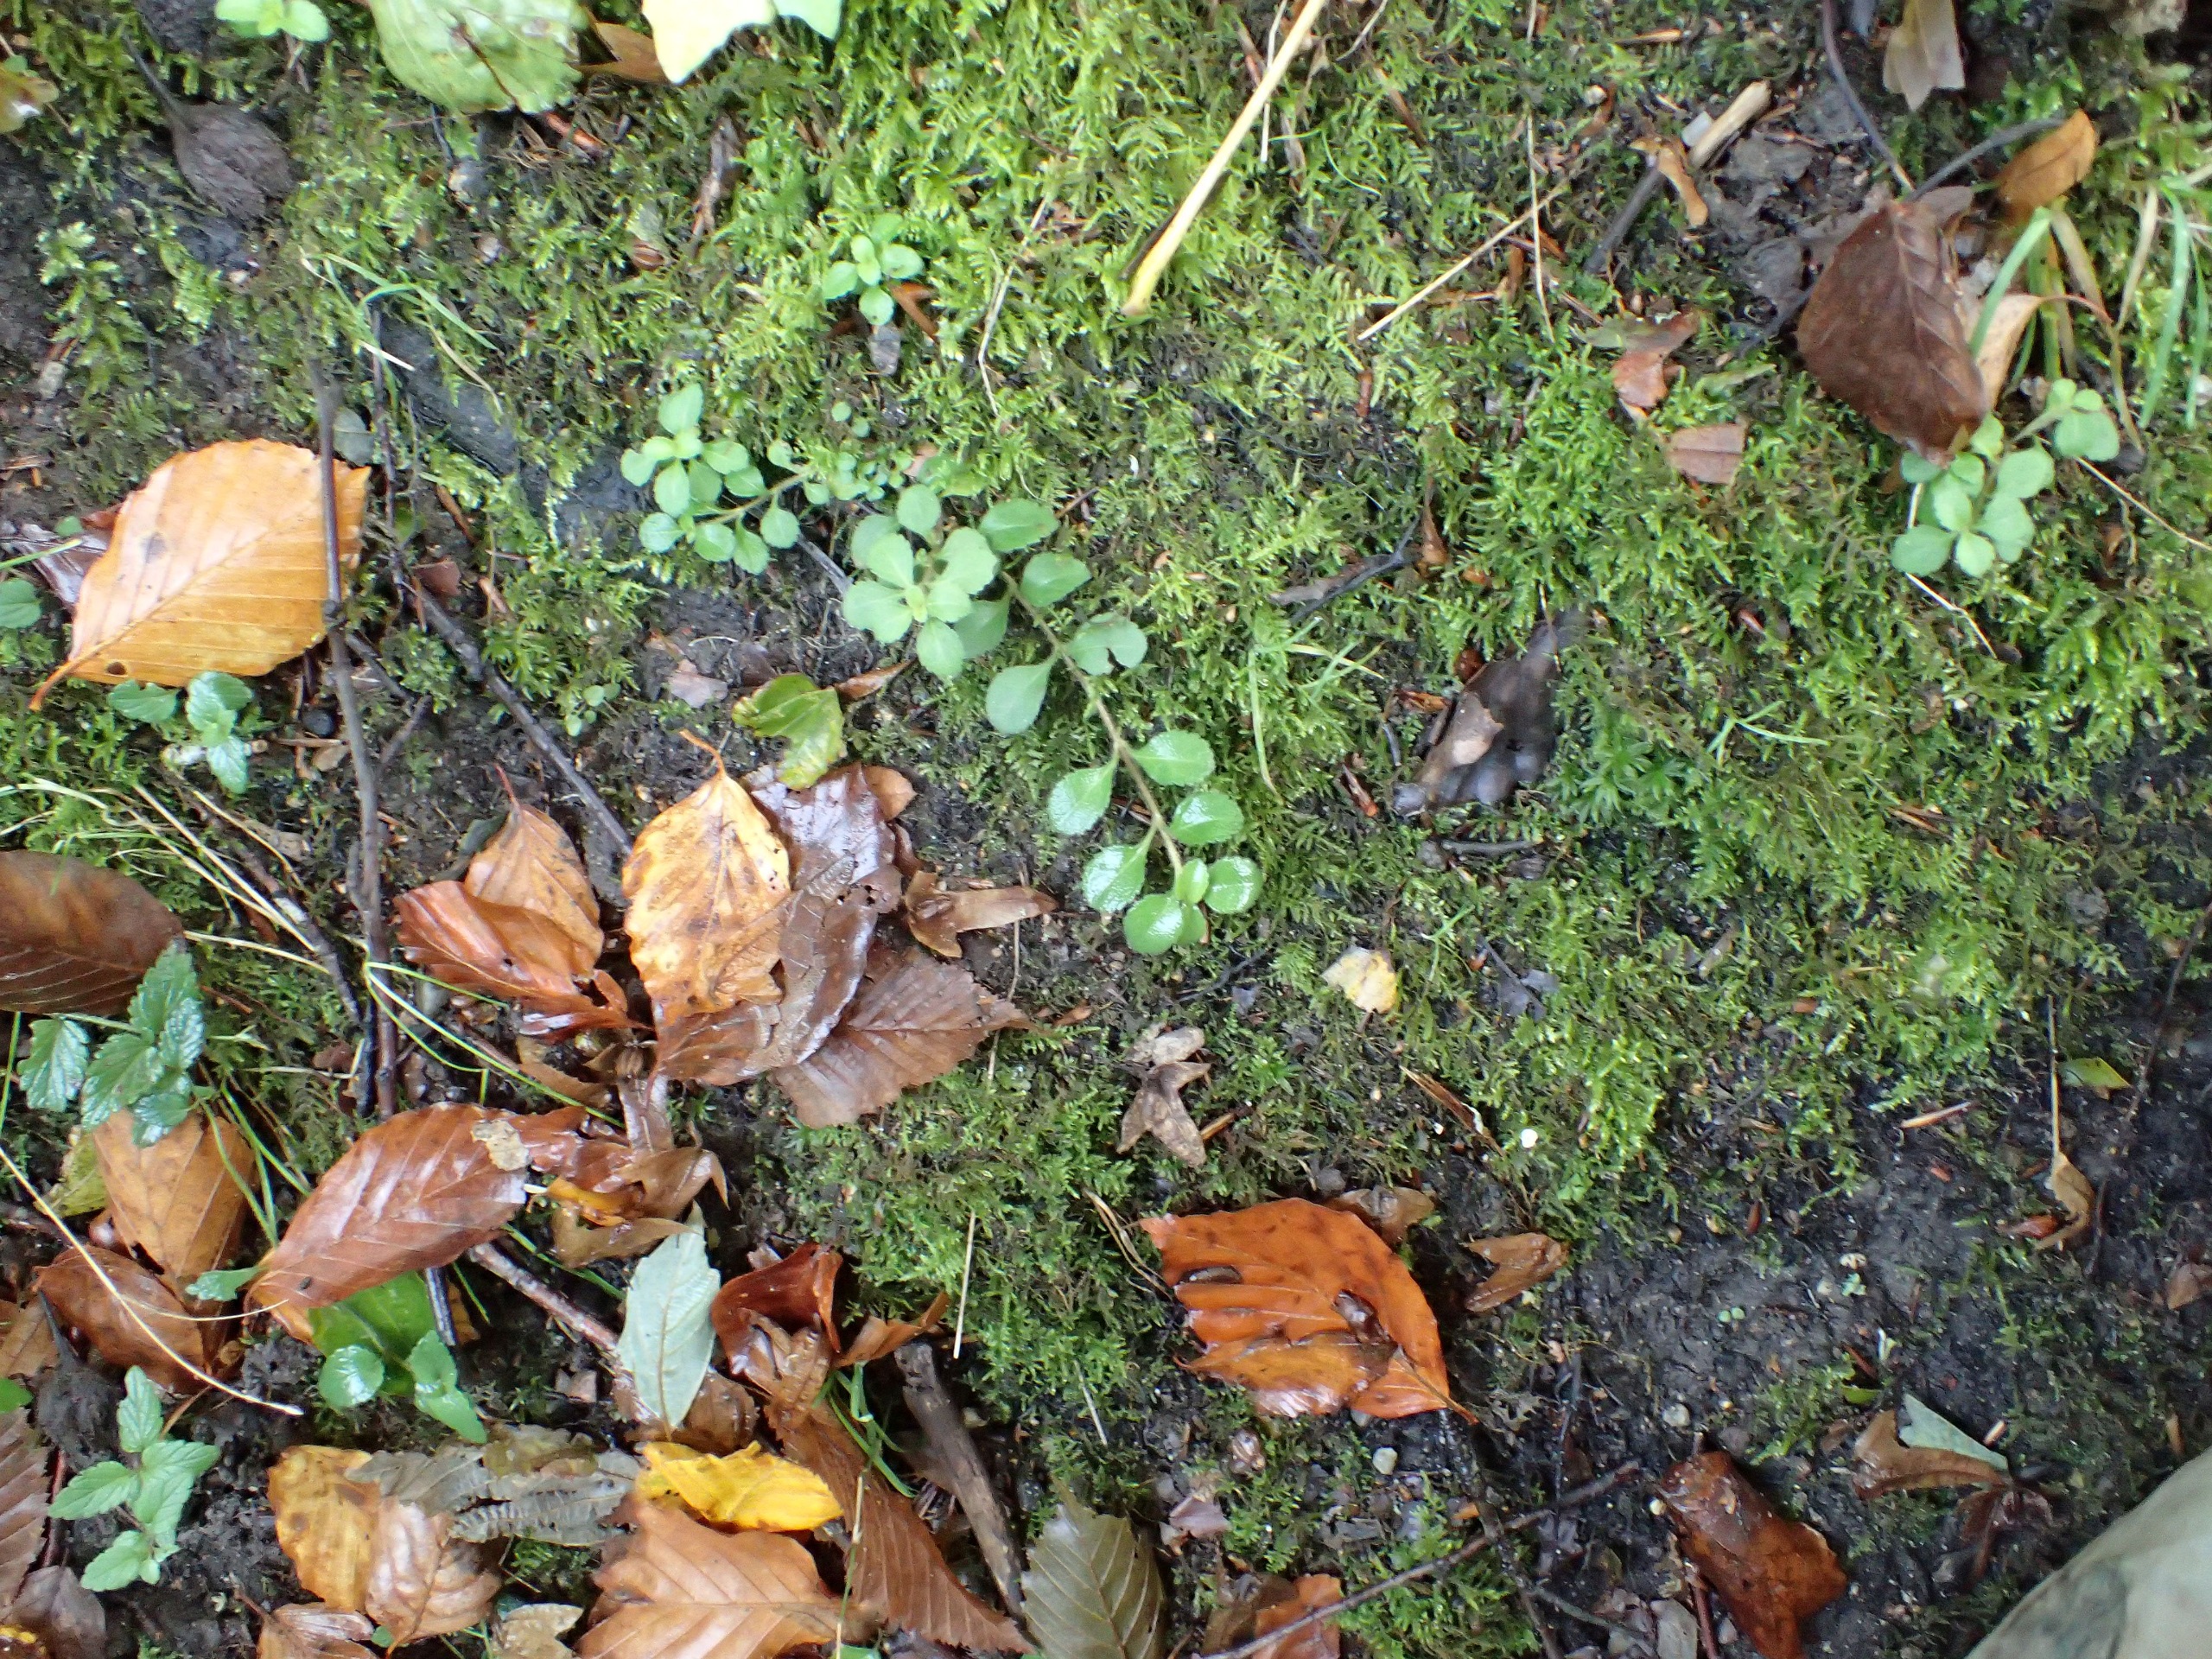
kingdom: Plantae
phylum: Tracheophyta
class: Magnoliopsida
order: Lamiales
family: Plantaginaceae
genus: Veronica
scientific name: Veronica officinalis
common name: Læge-ærenpris
